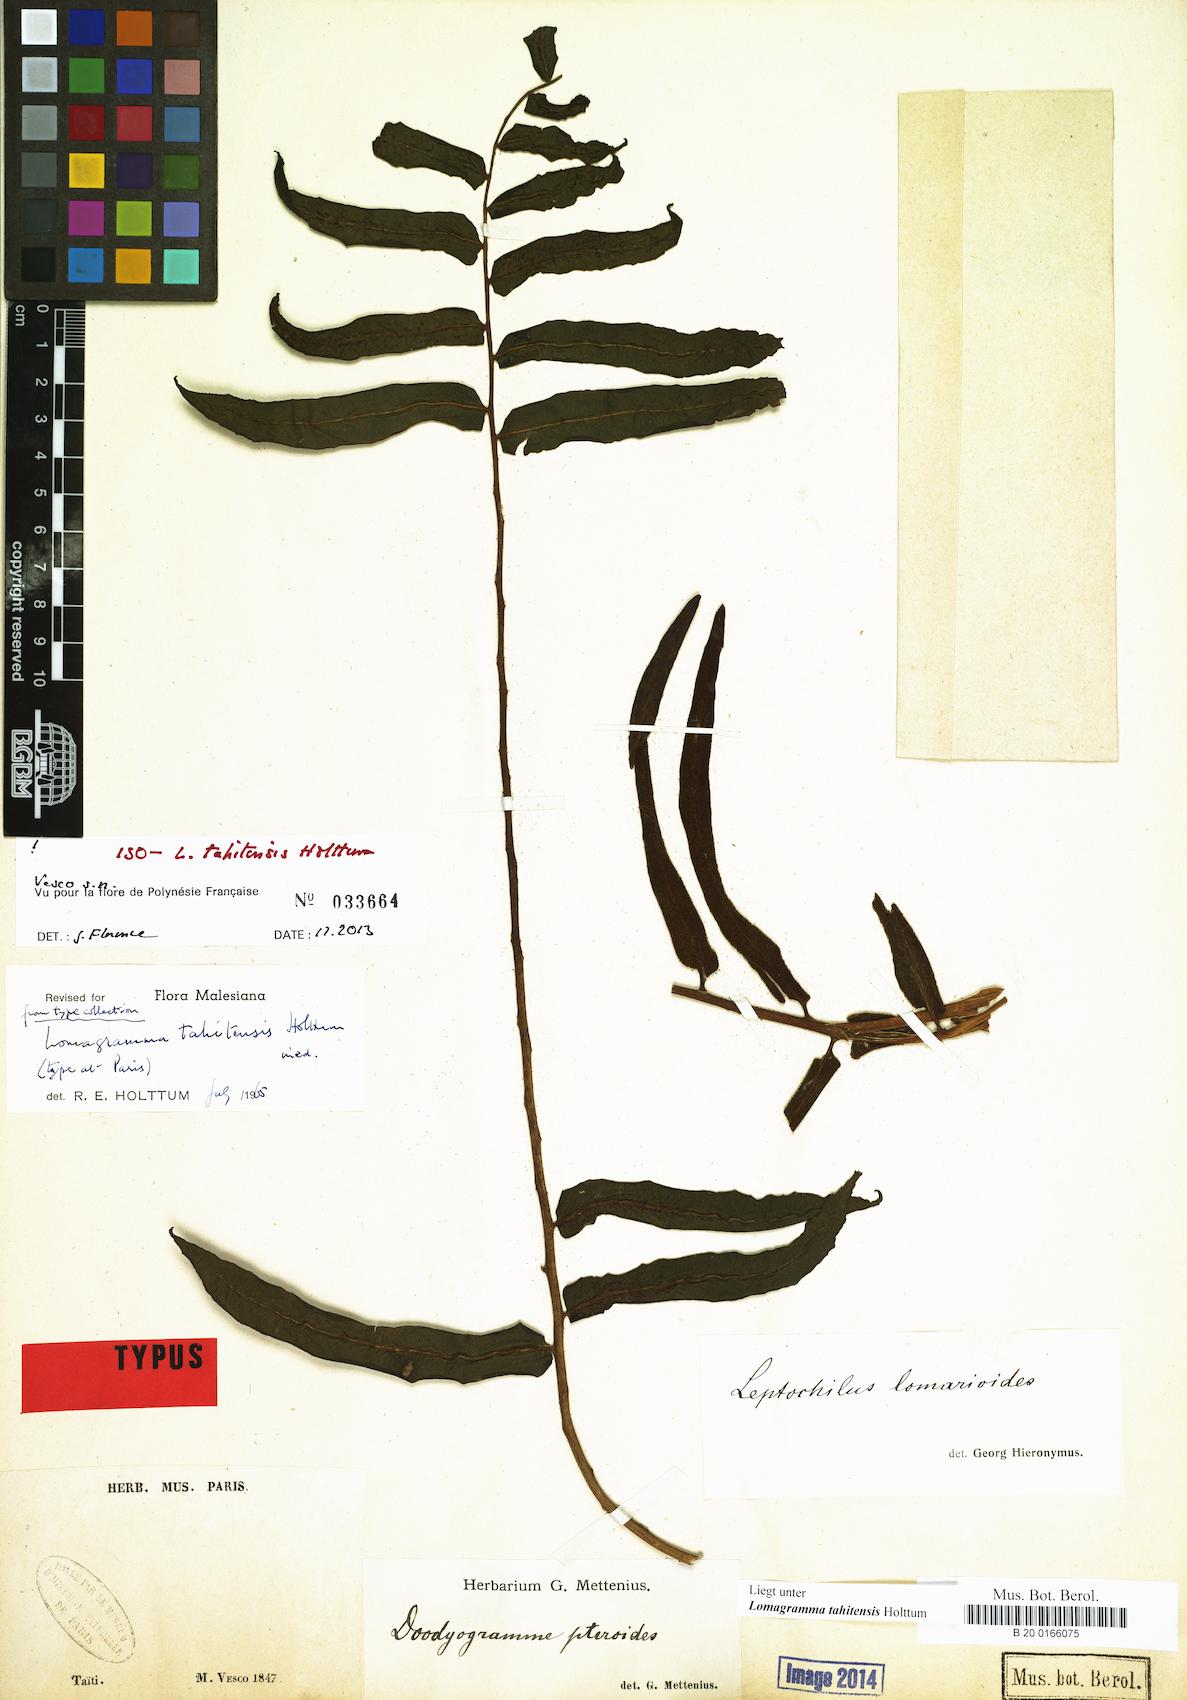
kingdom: Plantae
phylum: Tracheophyta
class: Polypodiopsida
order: Polypodiales
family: Dryopteridaceae
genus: Lomagramma
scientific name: Lomagramma tahitensis
